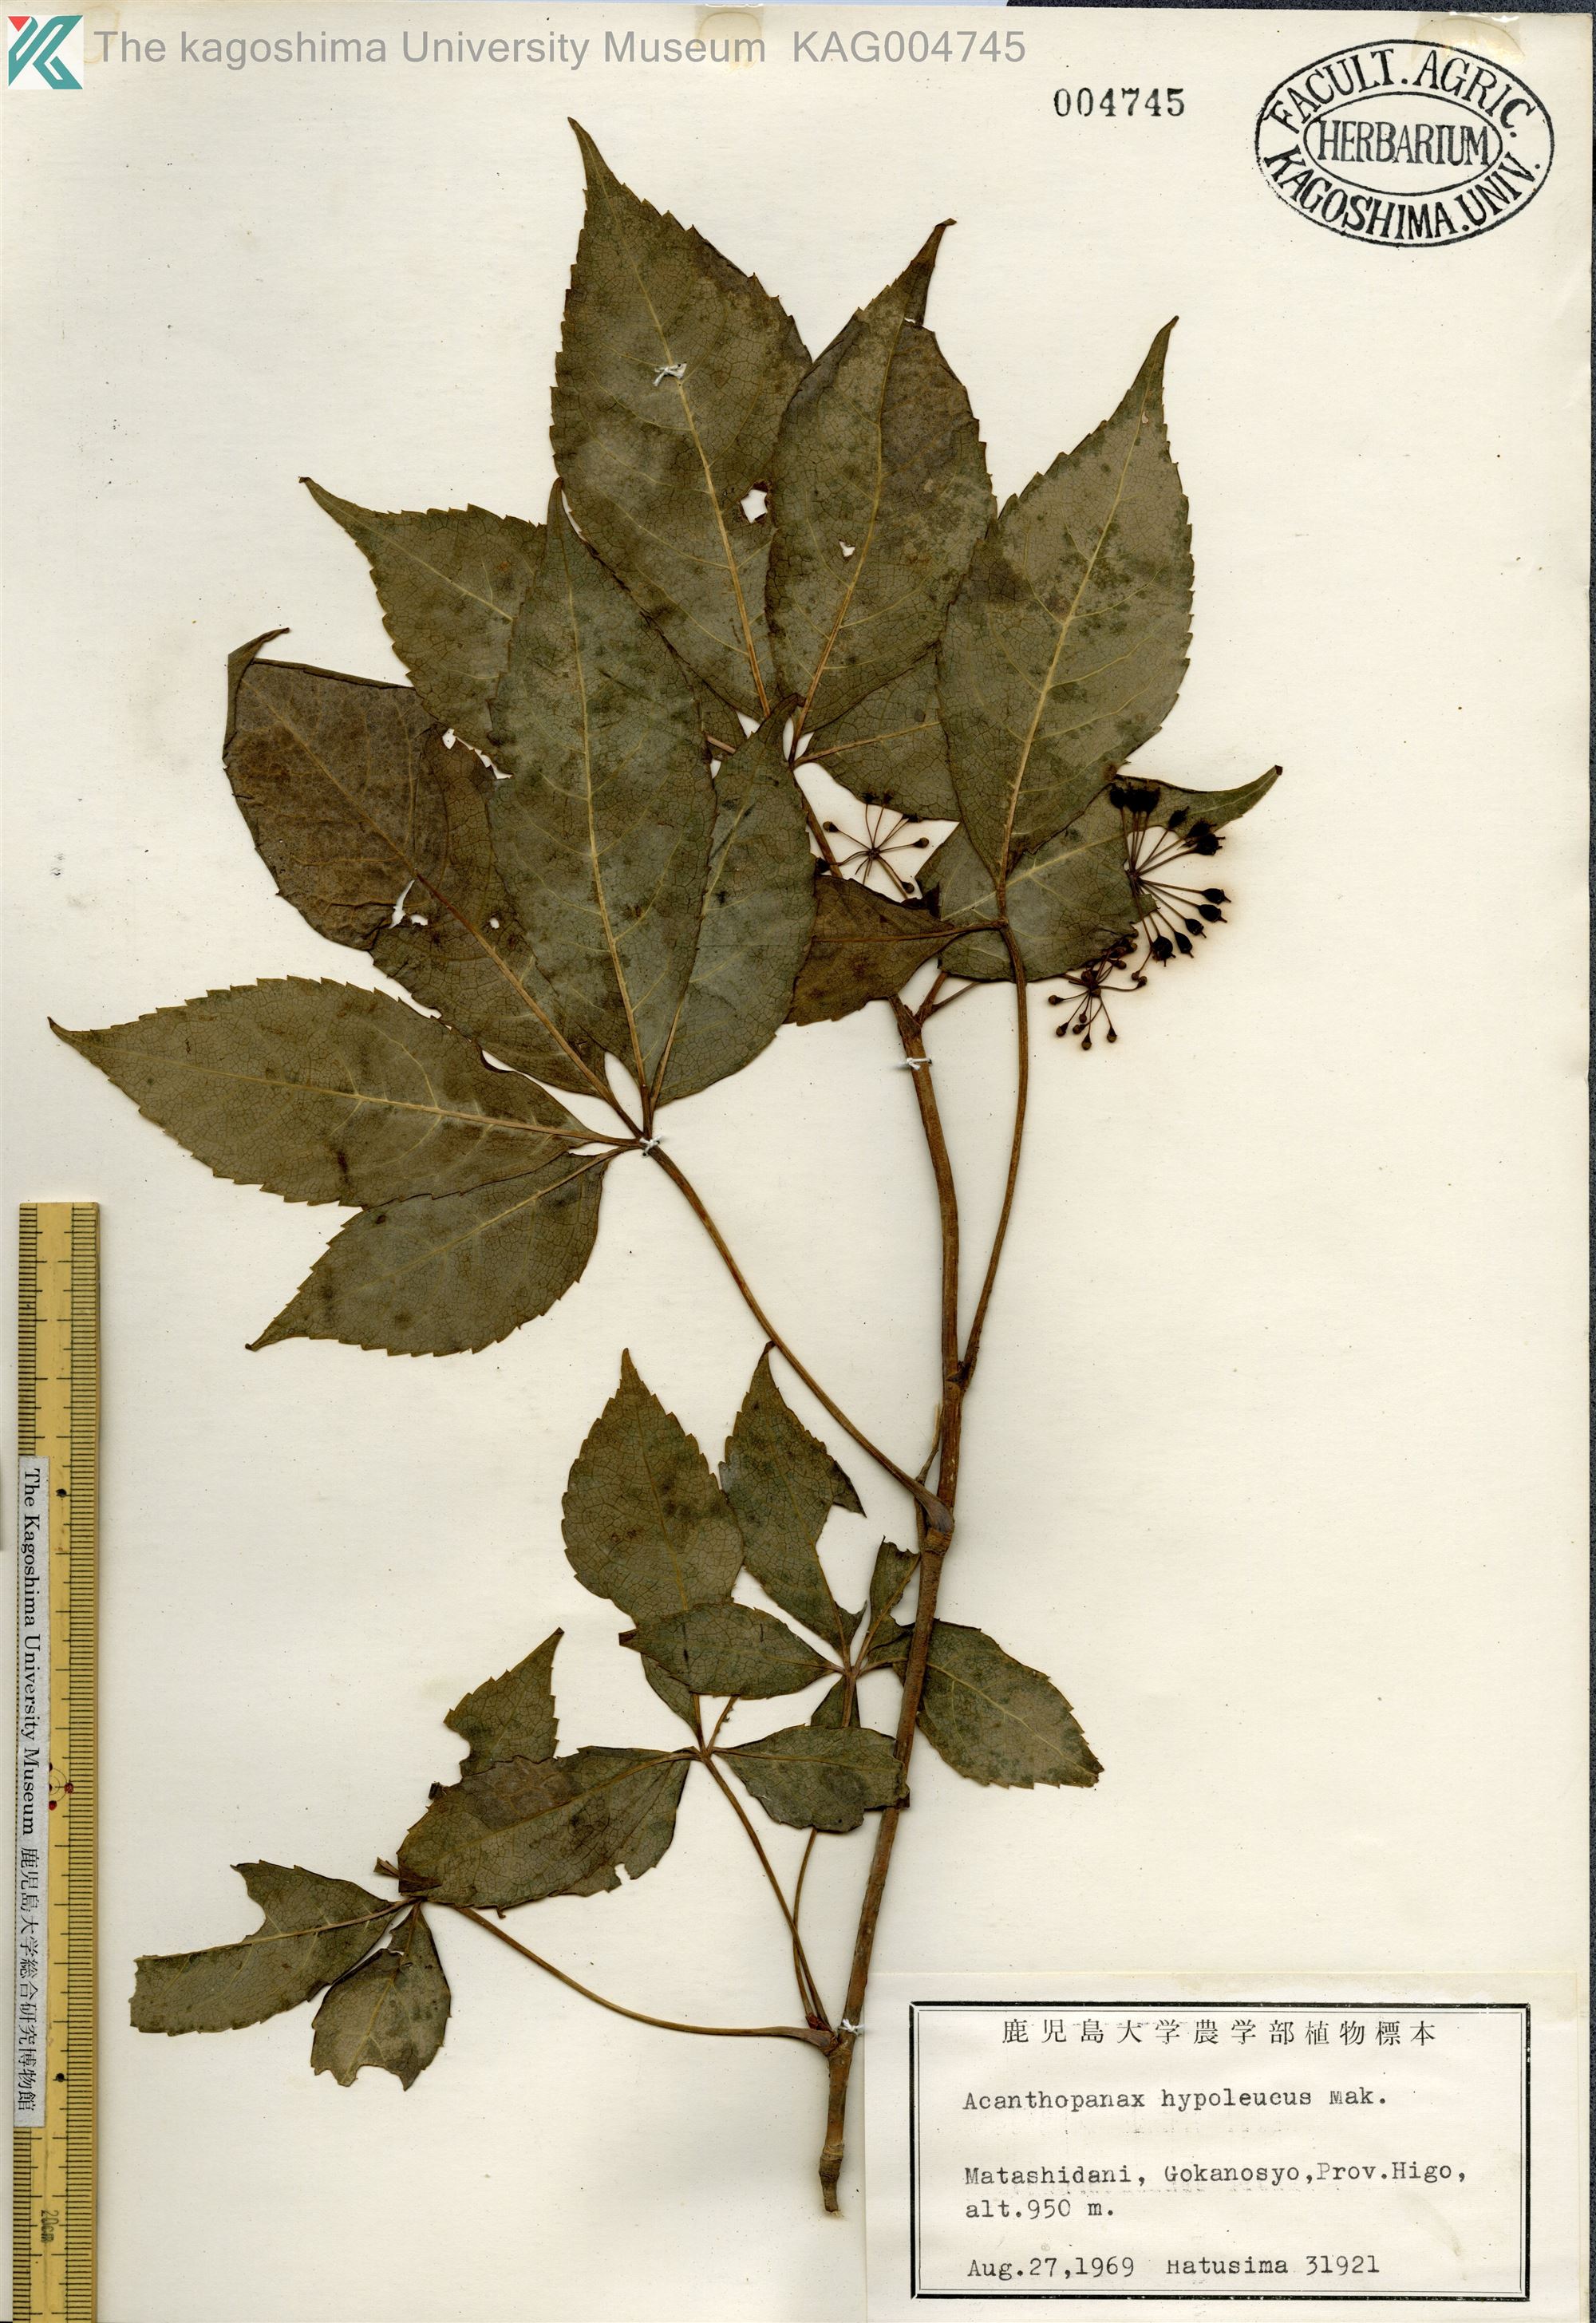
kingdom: Plantae
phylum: Tracheophyta
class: Magnoliopsida
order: Apiales
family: Araliaceae
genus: Eleutherococcus
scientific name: Eleutherococcus hypoleucus
